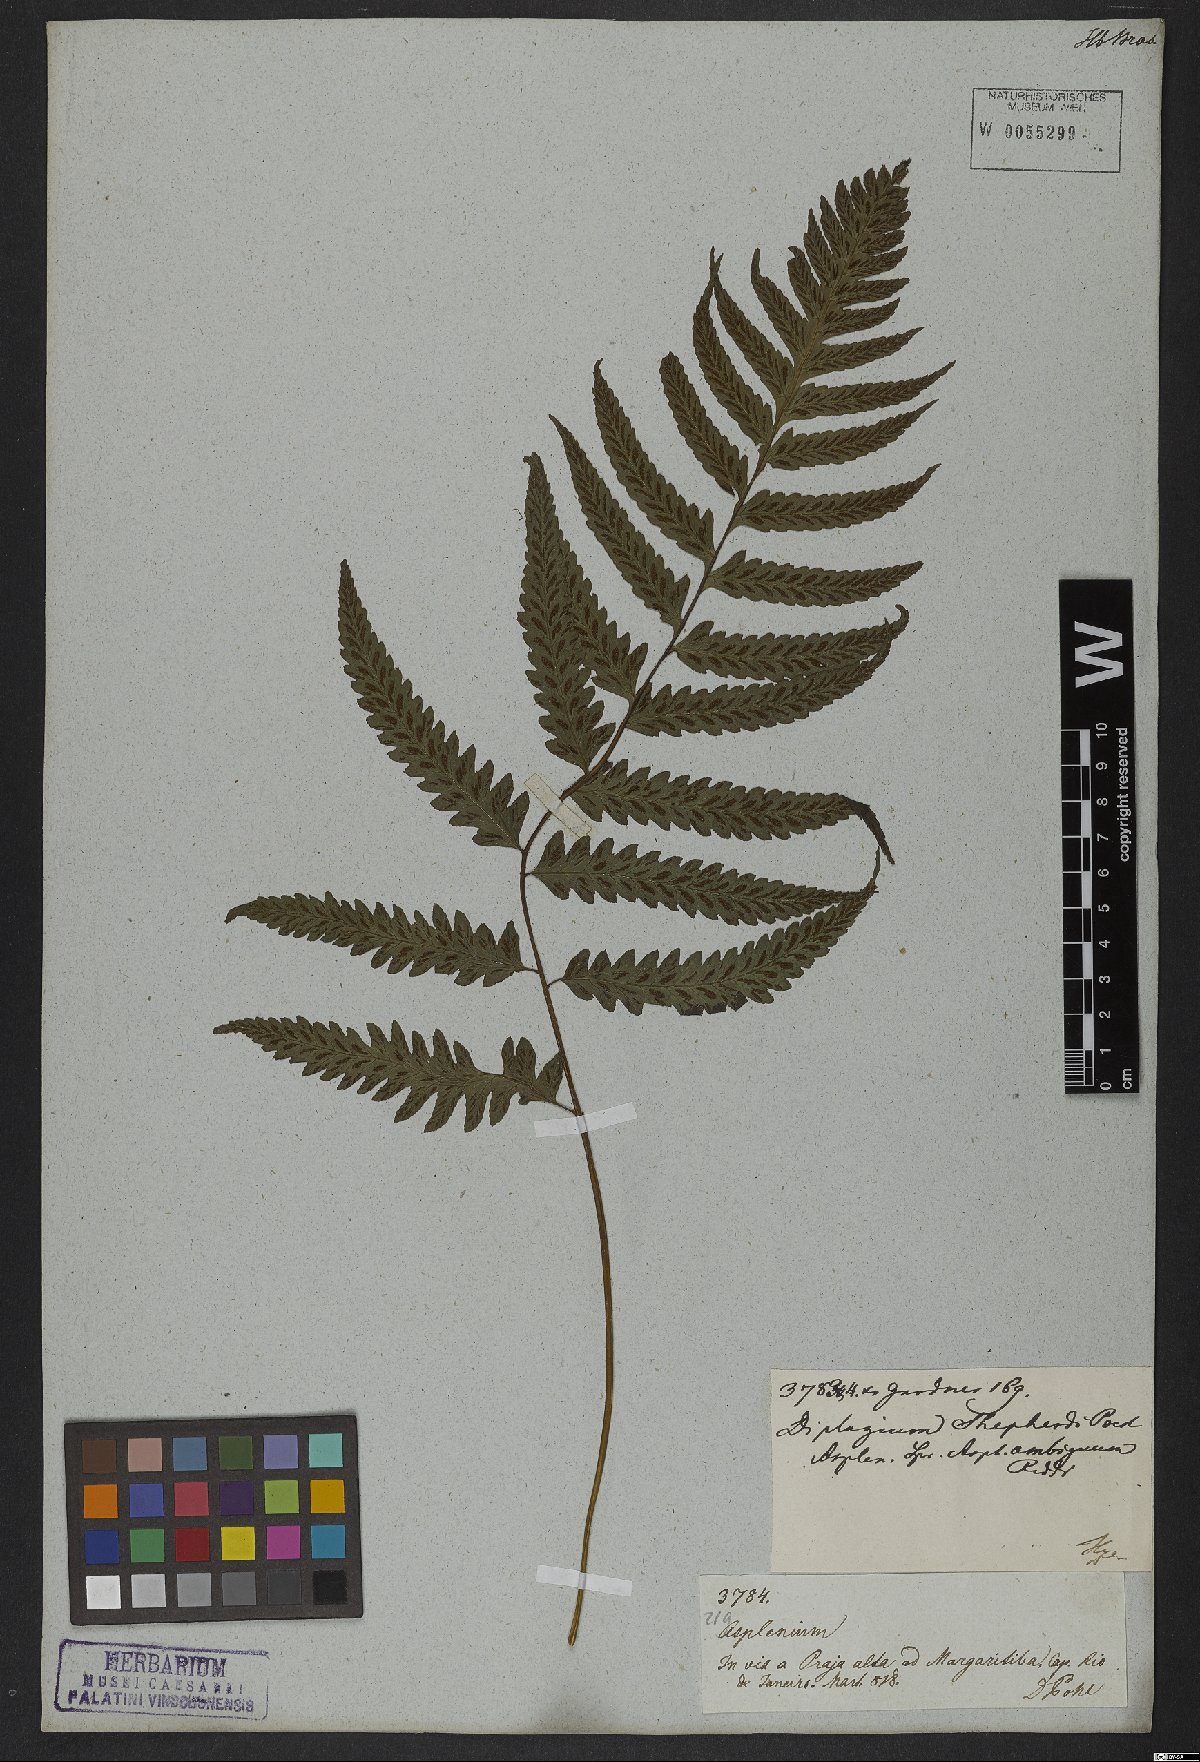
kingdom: Plantae
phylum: Tracheophyta
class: Polypodiopsida
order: Polypodiales
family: Athyriaceae
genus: Diplazium
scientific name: Diplazium cristatum
